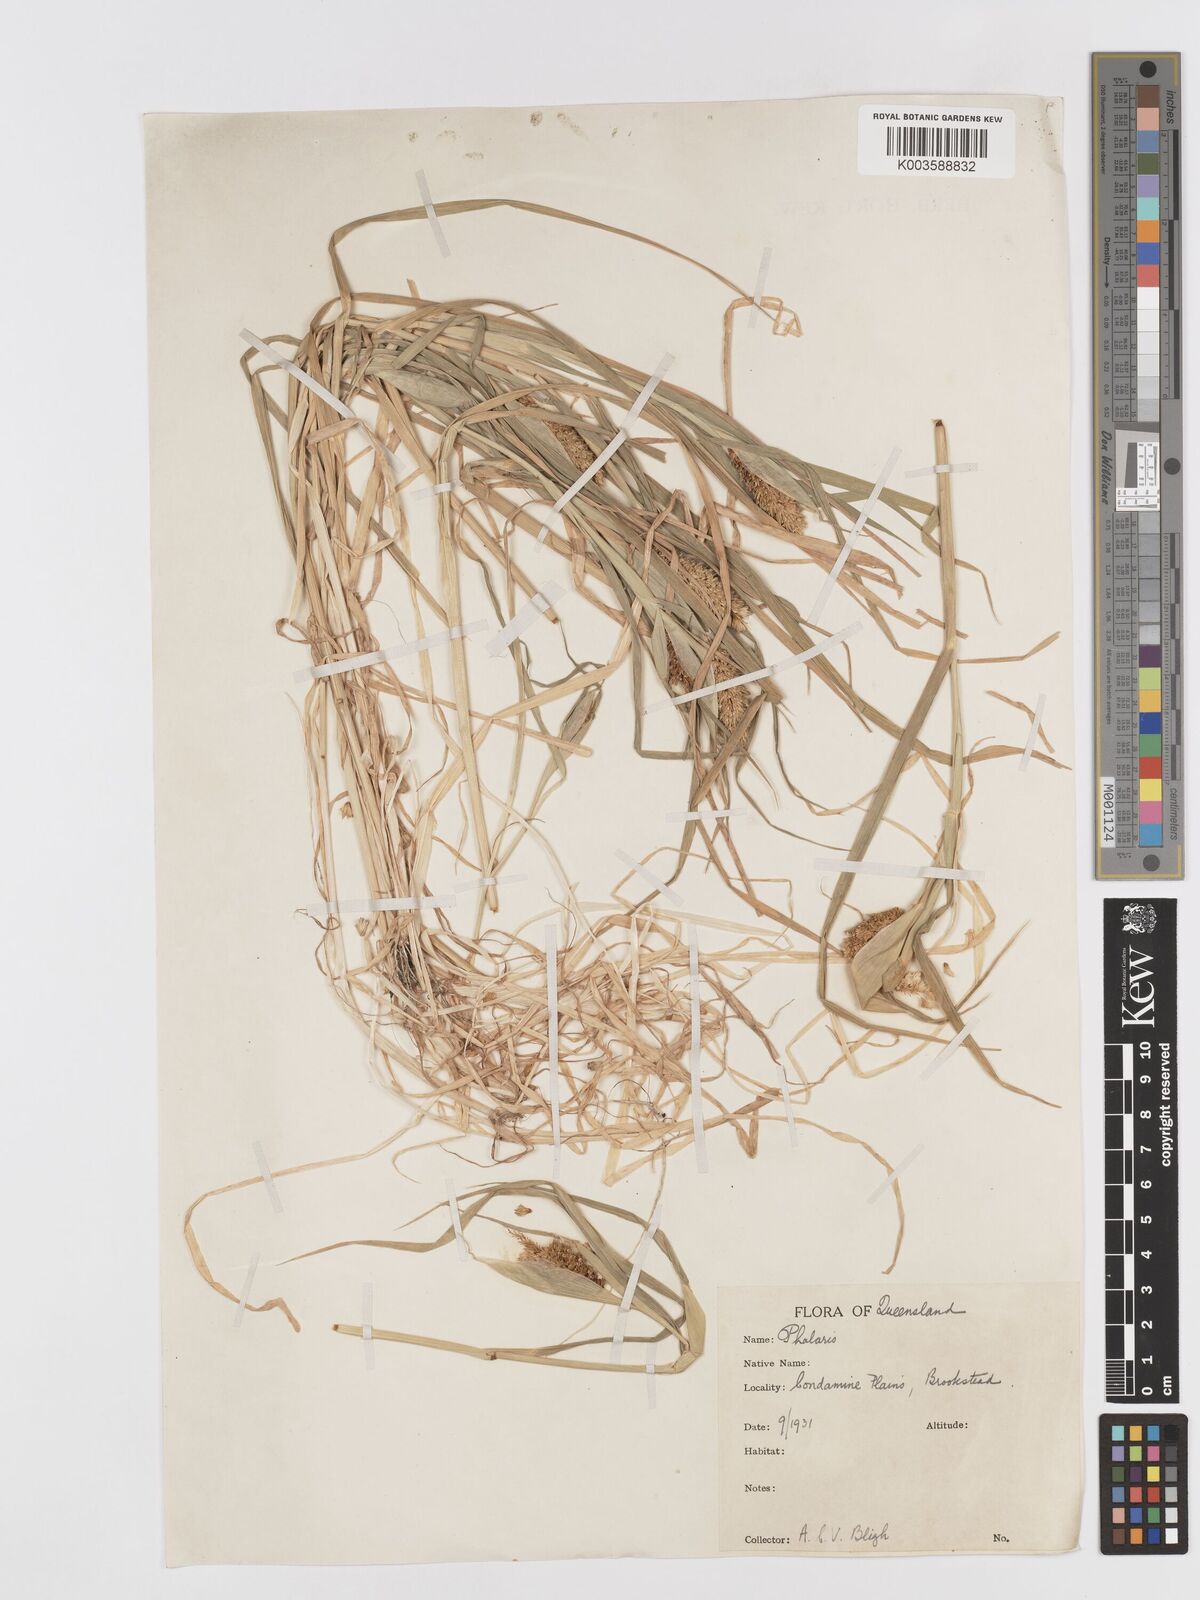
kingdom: Plantae
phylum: Tracheophyta
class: Liliopsida
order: Poales
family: Poaceae
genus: Phalaris
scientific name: Phalaris paradoxa
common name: Awned canary-grass
